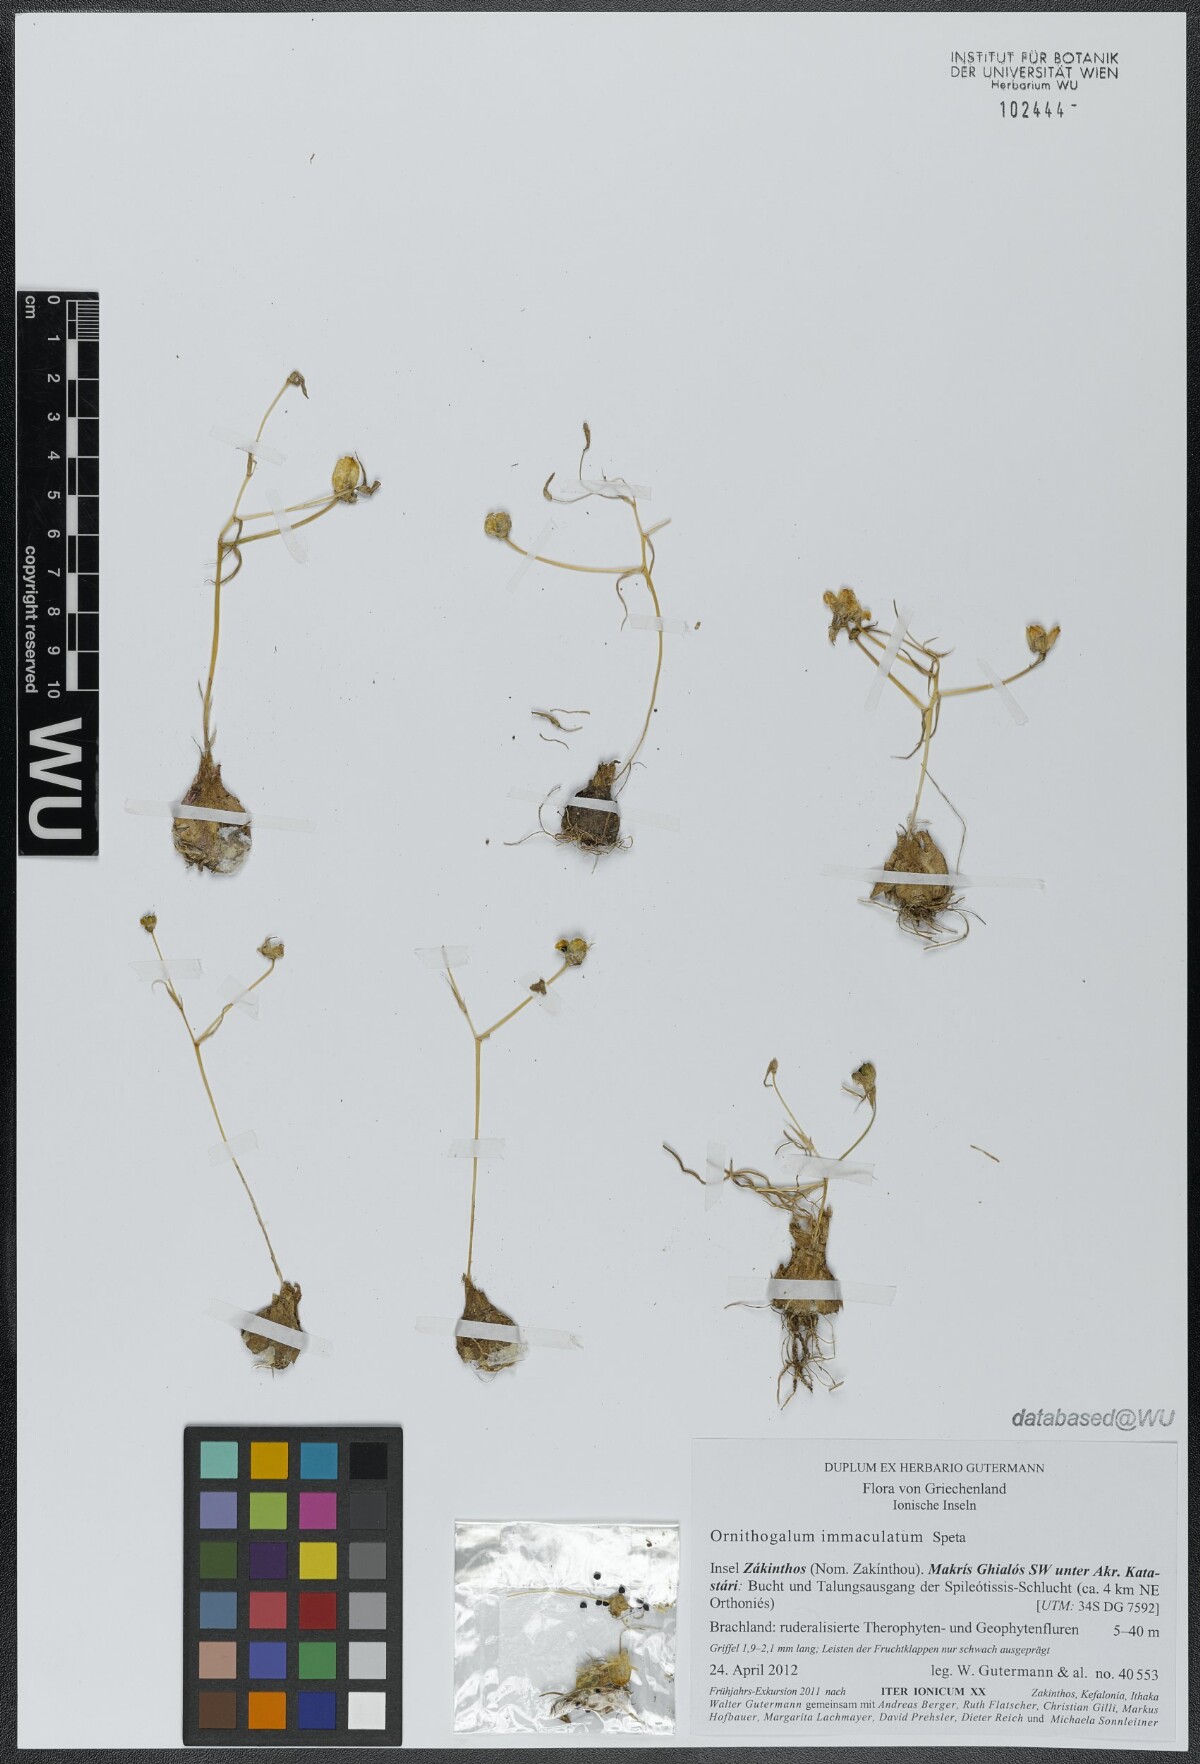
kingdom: Plantae
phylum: Tracheophyta
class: Liliopsida
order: Asparagales
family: Asparagaceae
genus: Ornithogalum
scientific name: Ornithogalum immaculatum
